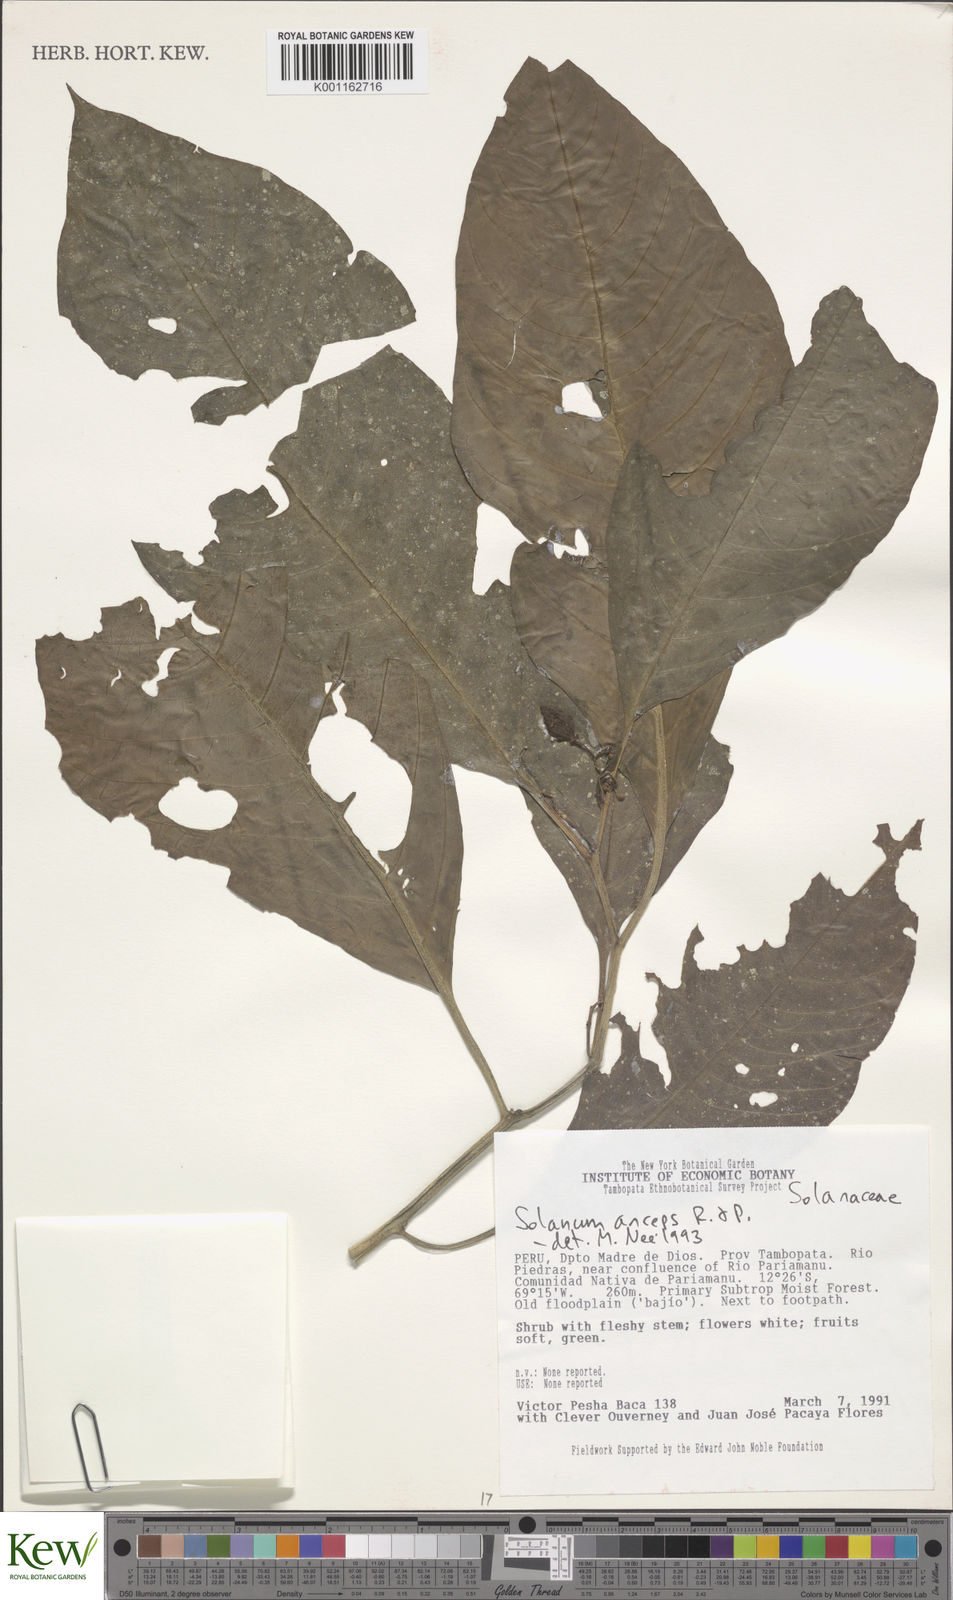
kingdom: Plantae
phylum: Tracheophyta
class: Magnoliopsida
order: Solanales
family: Solanaceae
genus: Solanum
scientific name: Solanum anceps
